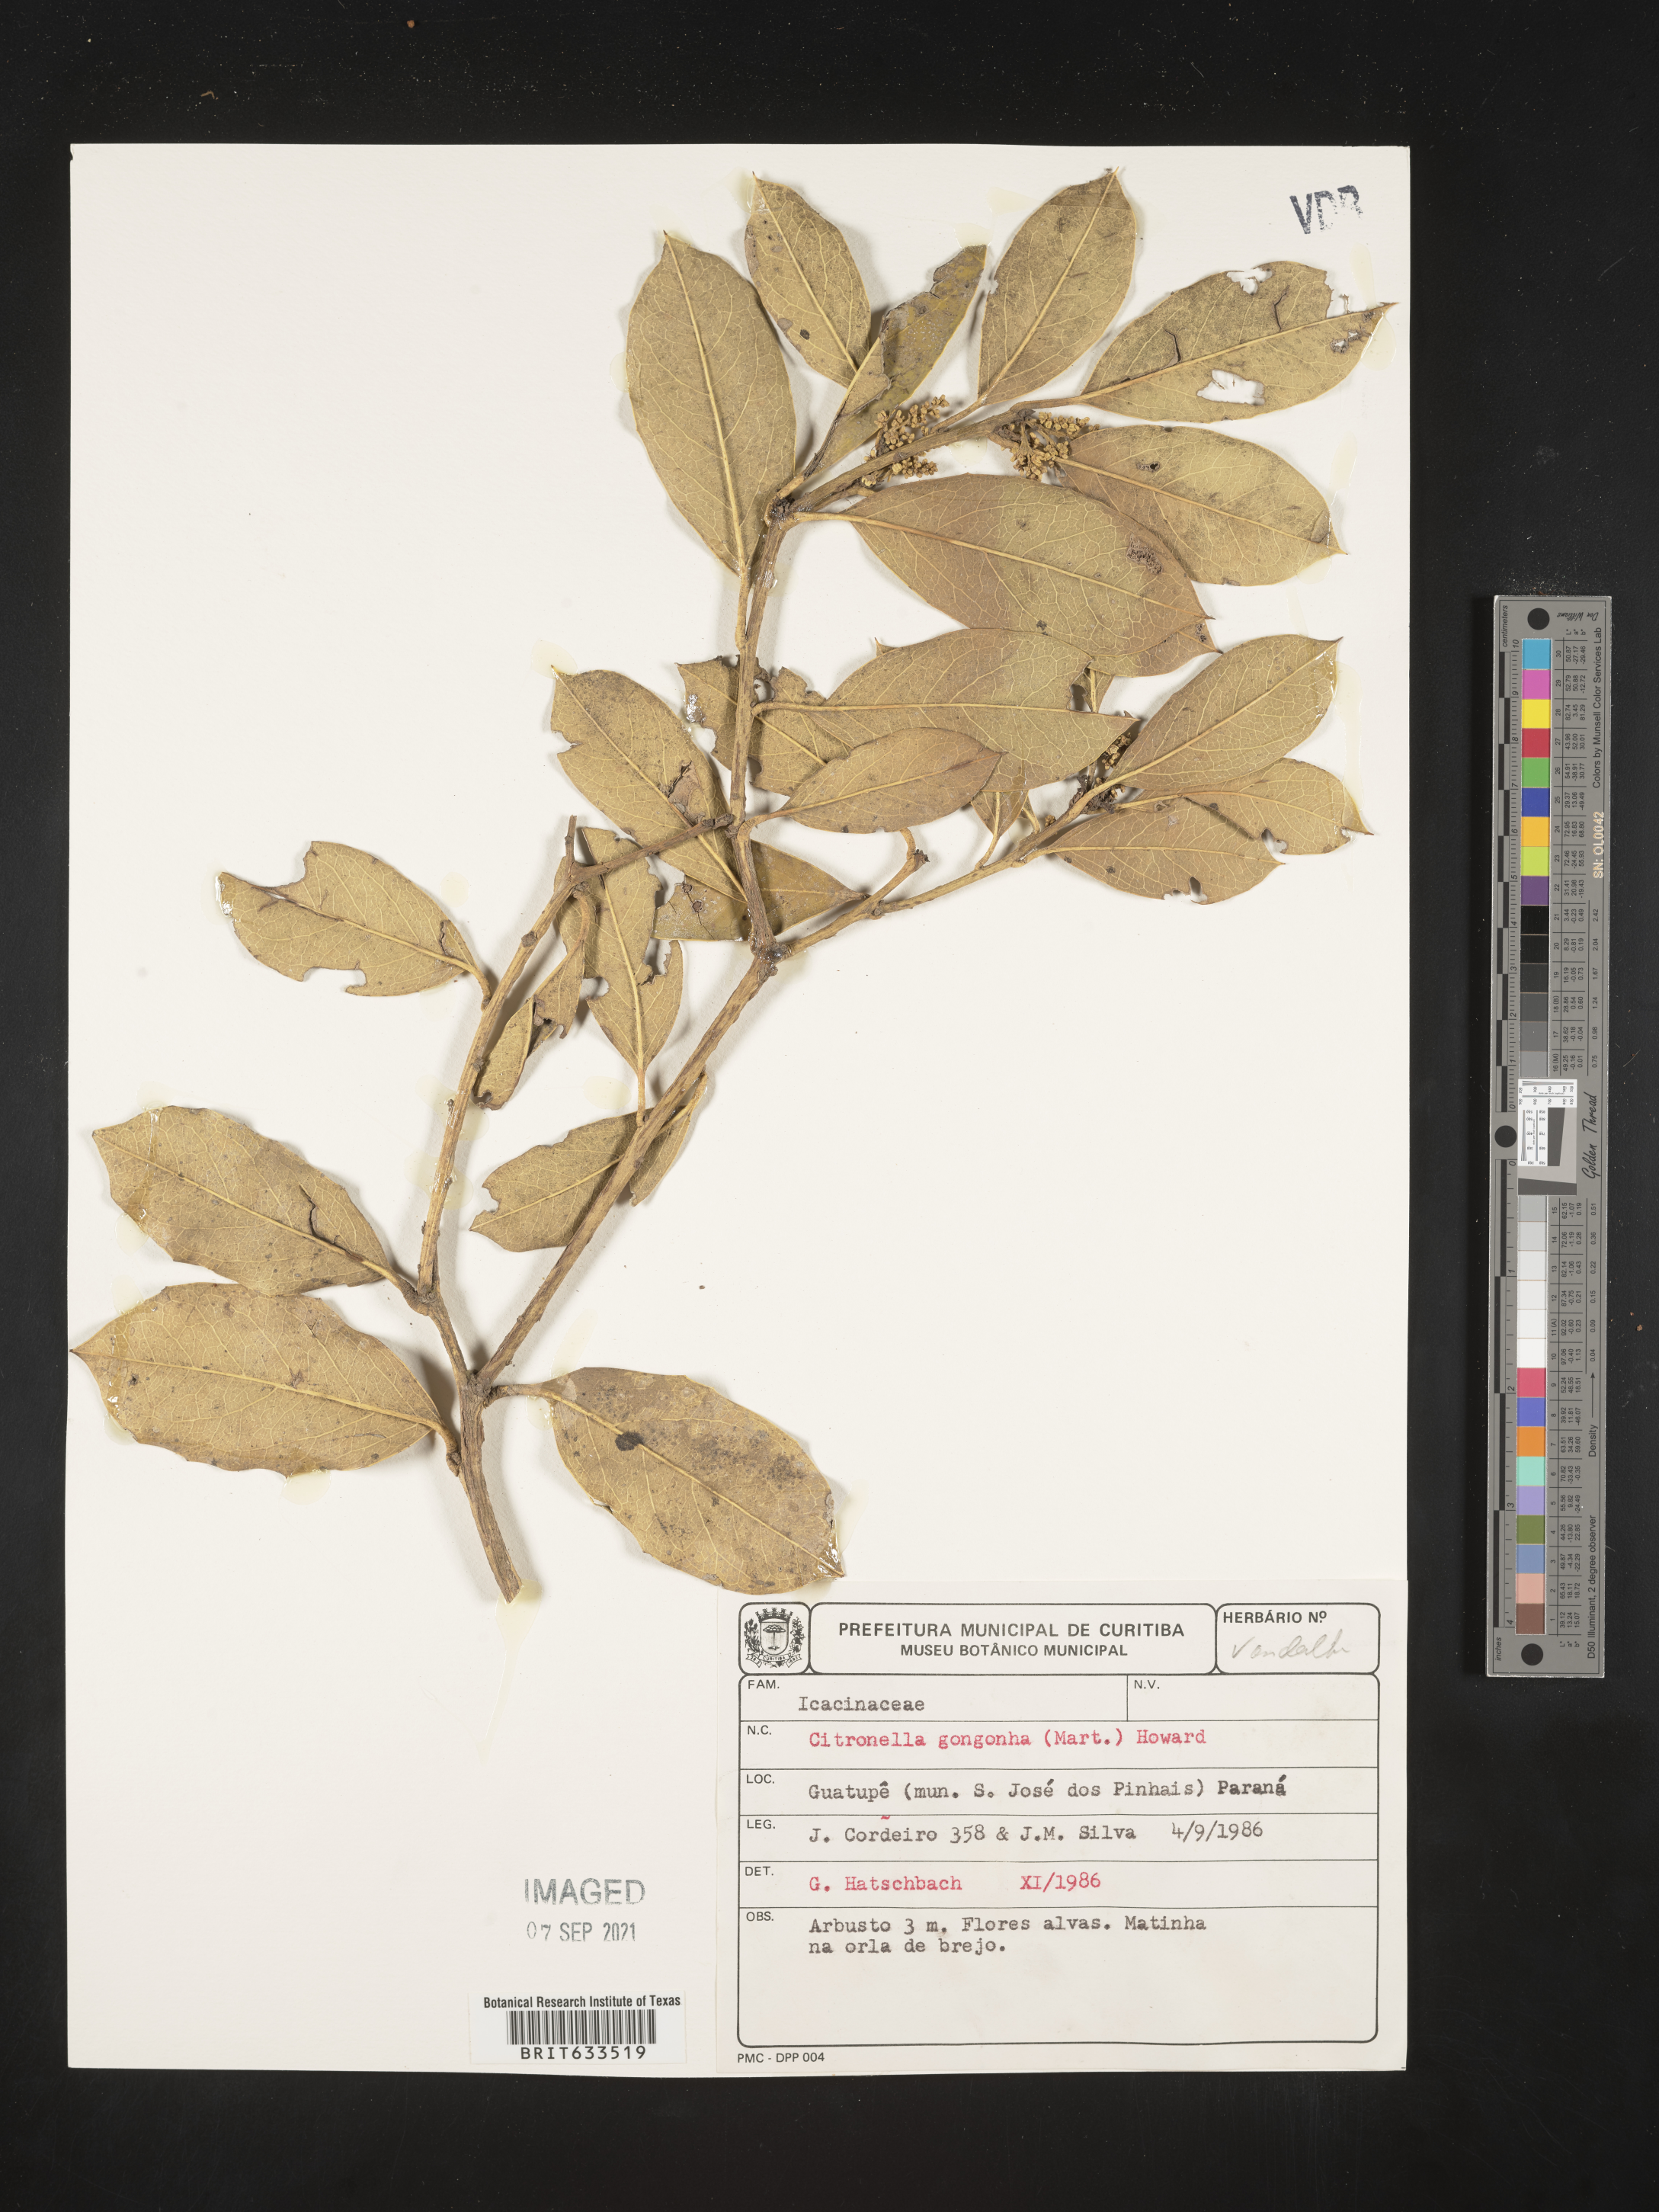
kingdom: Plantae
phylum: Tracheophyta
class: Magnoliopsida
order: Cardiopteridales
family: Cardiopteridaceae
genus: Citronella
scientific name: Citronella gongonha
